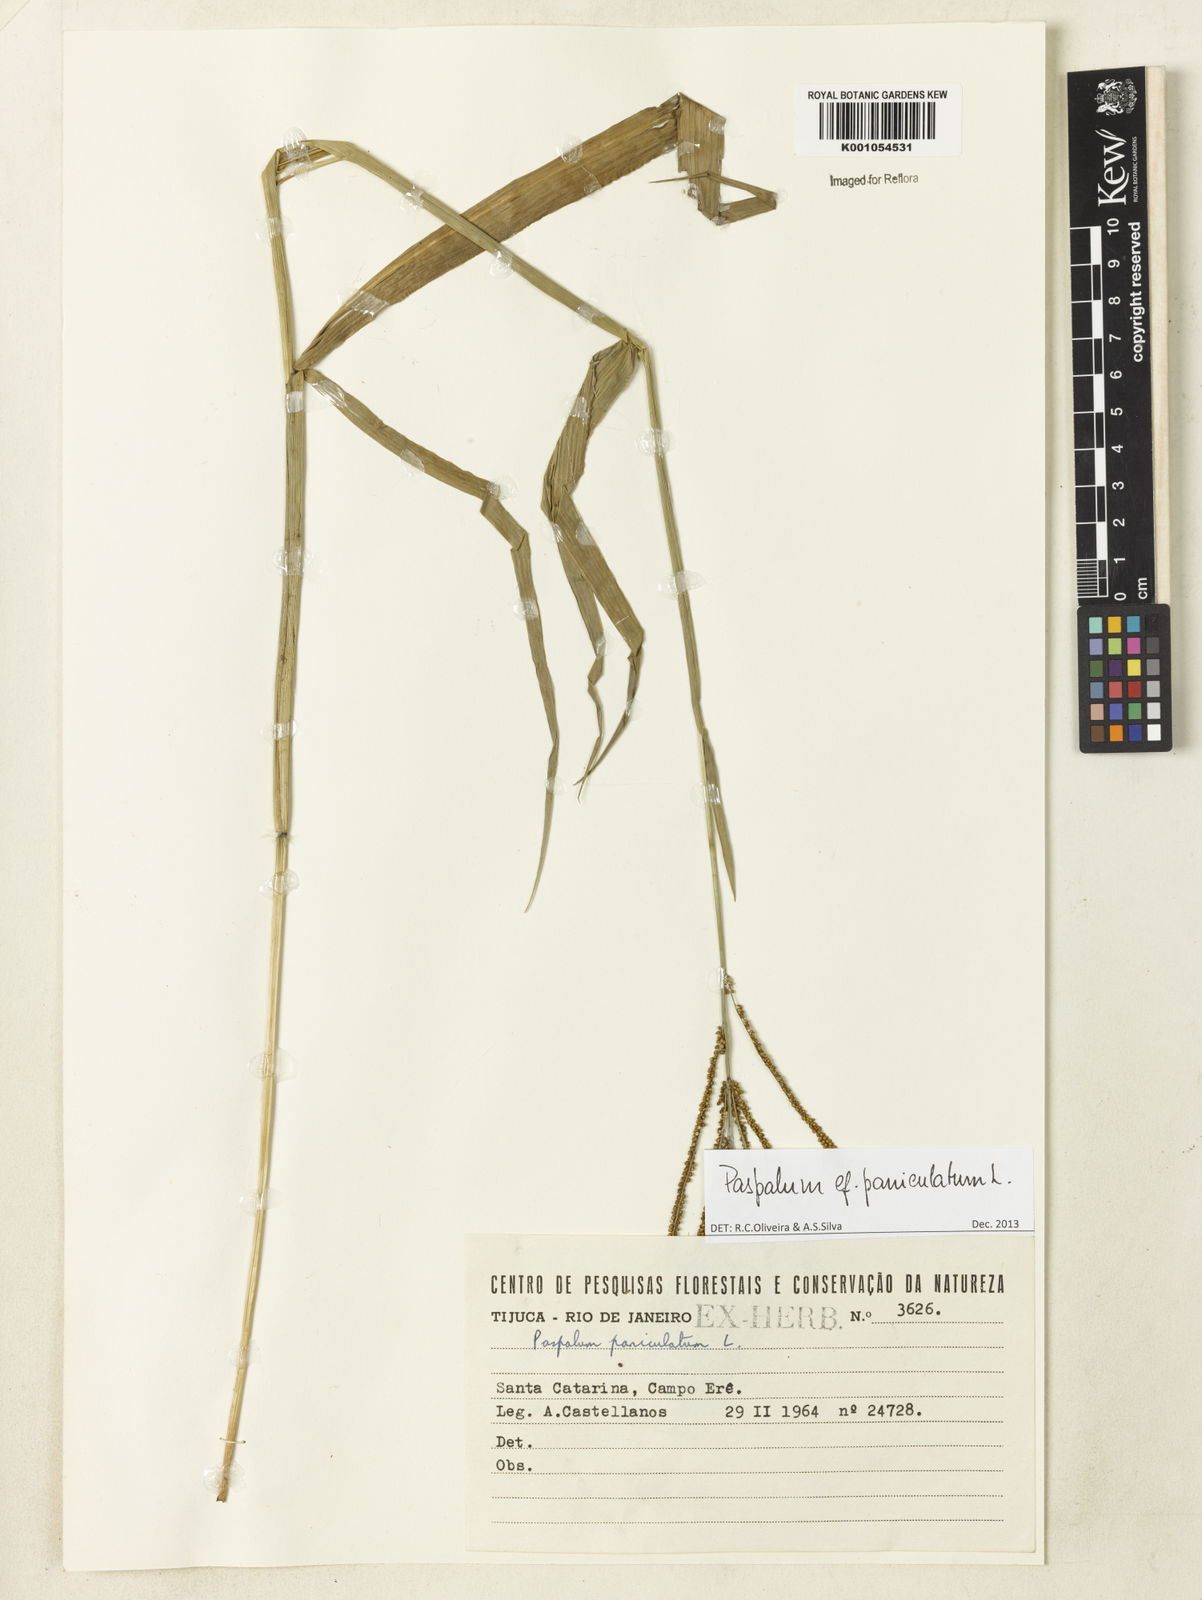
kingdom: Plantae
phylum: Tracheophyta
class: Liliopsida
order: Poales
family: Poaceae
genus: Paspalum
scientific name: Paspalum paniculatum
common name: Arrocillo
